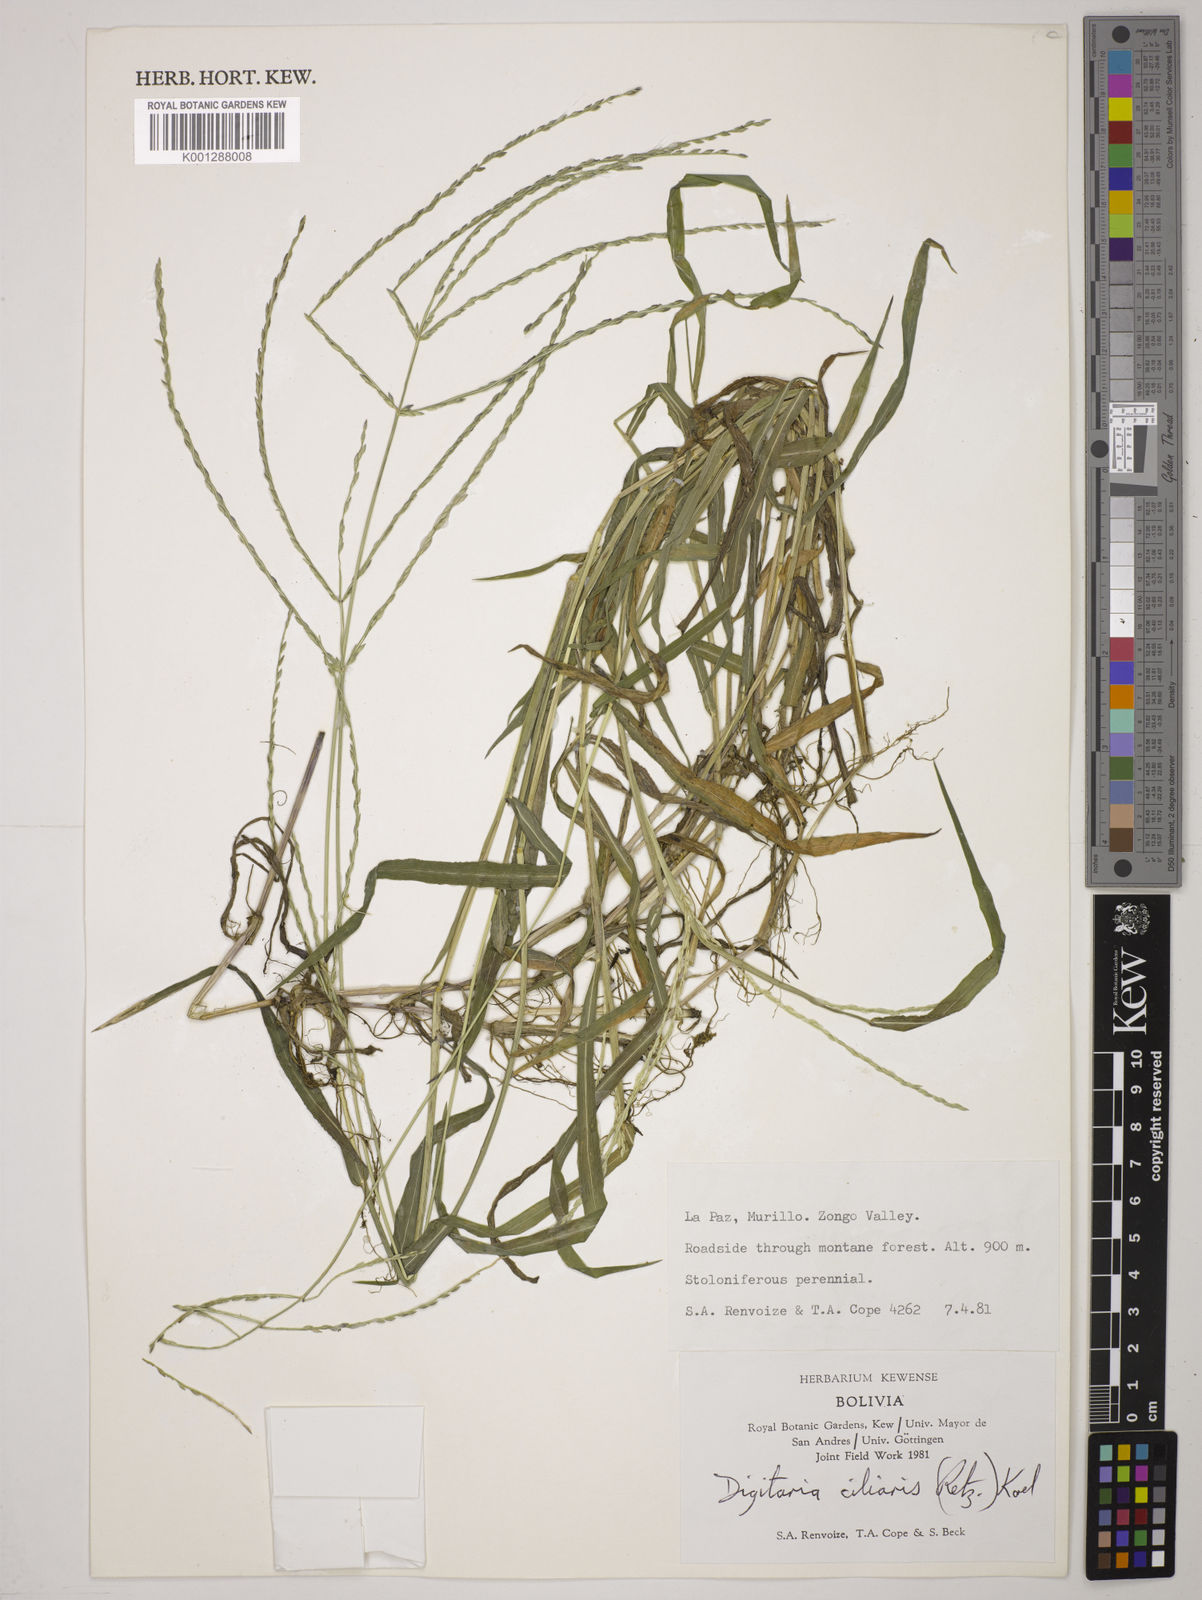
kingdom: Plantae
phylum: Tracheophyta
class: Liliopsida
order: Poales
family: Poaceae
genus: Digitaria
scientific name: Digitaria
